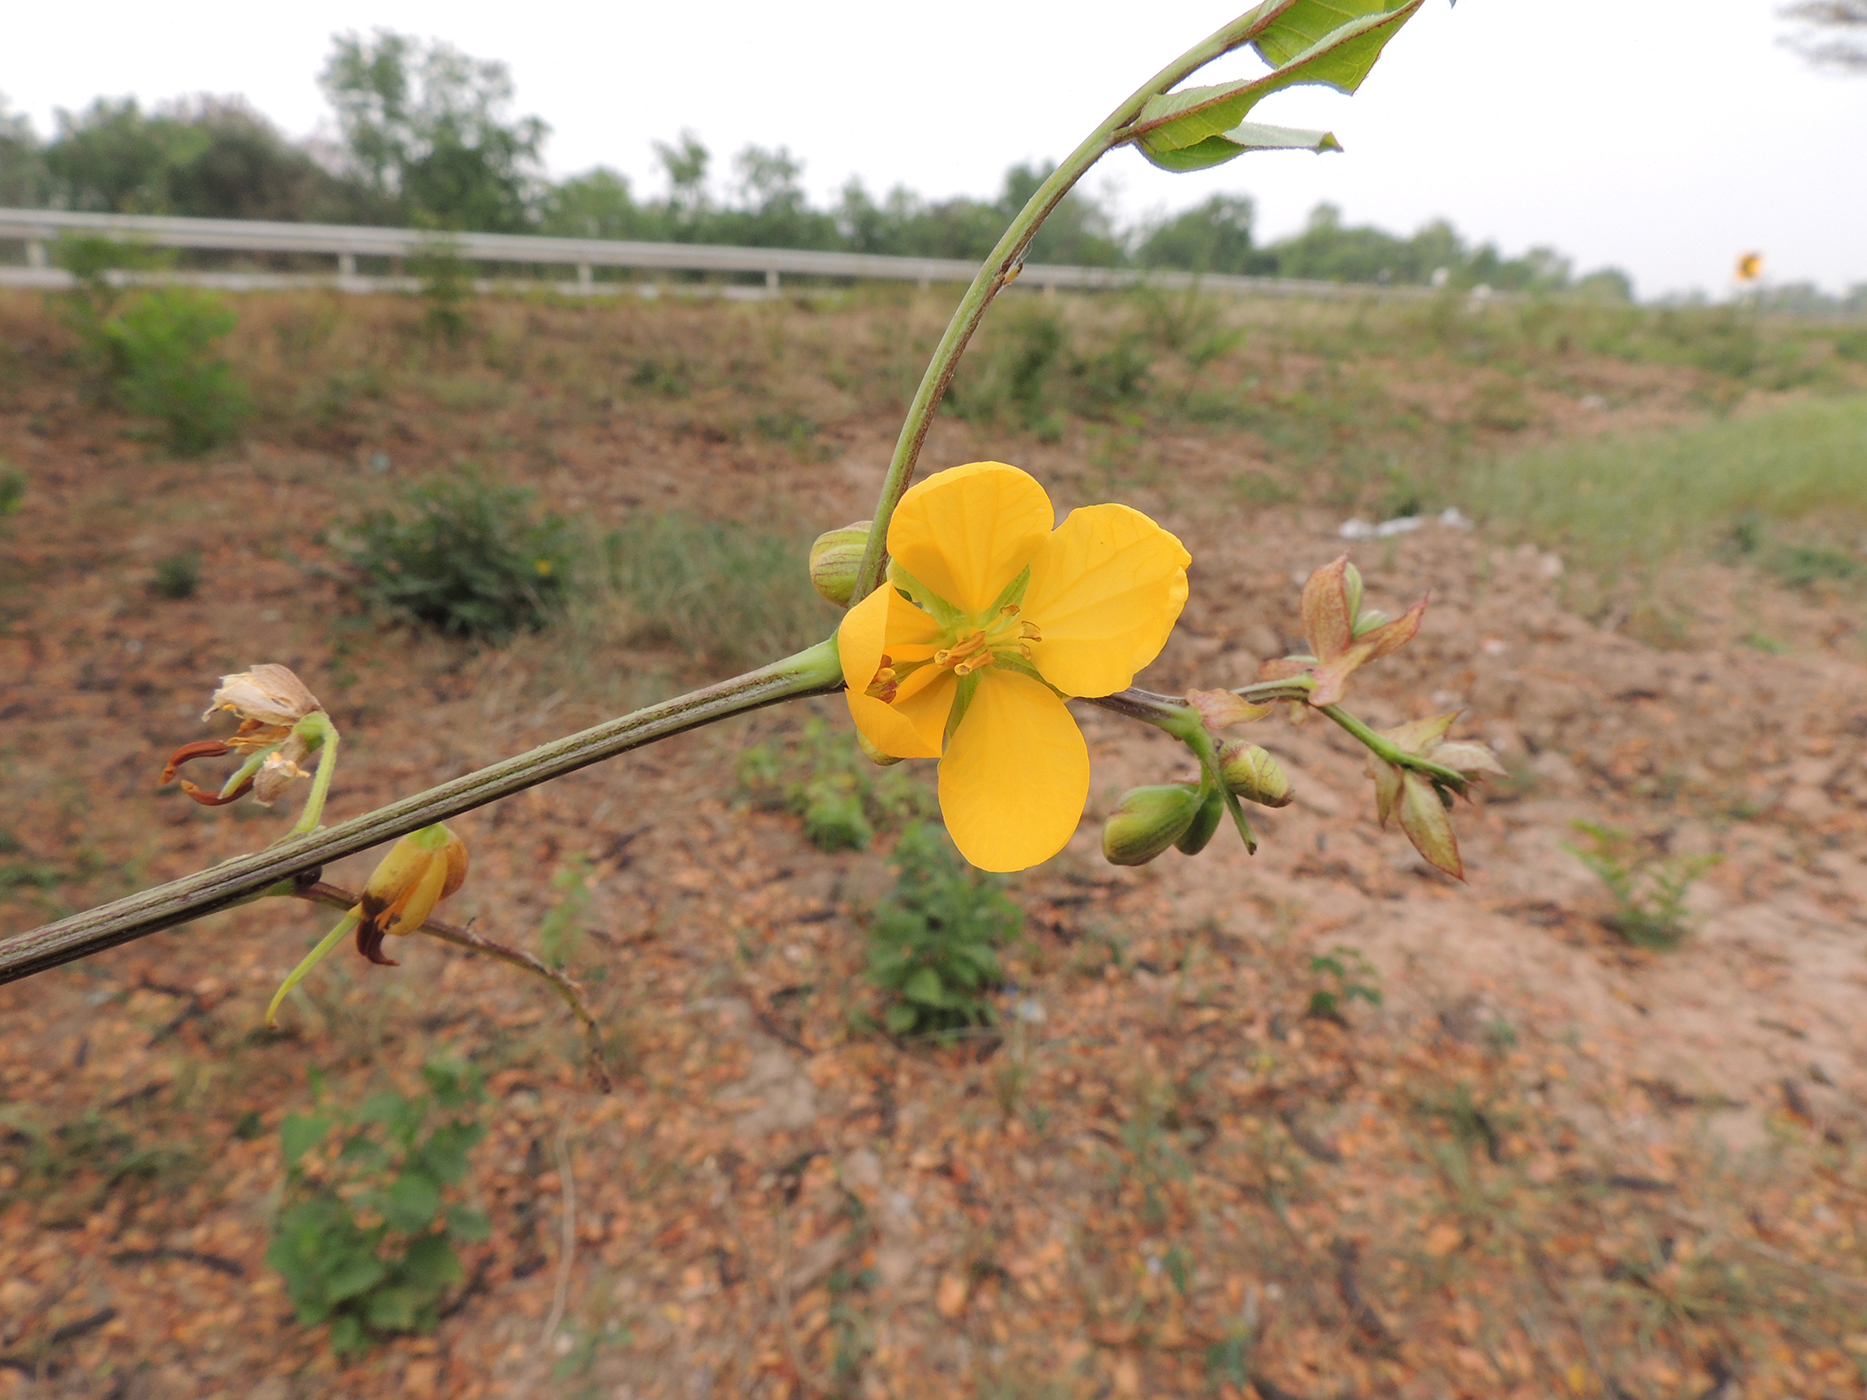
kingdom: Plantae
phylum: Tracheophyta
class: Magnoliopsida
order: Fabales
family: Fabaceae
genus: Senna
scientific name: Senna occidentalis
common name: Septicweed
